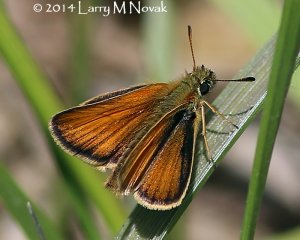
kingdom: Animalia
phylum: Arthropoda
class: Insecta
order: Lepidoptera
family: Hesperiidae
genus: Thymelicus
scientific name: Thymelicus lineola
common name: European Skipper
